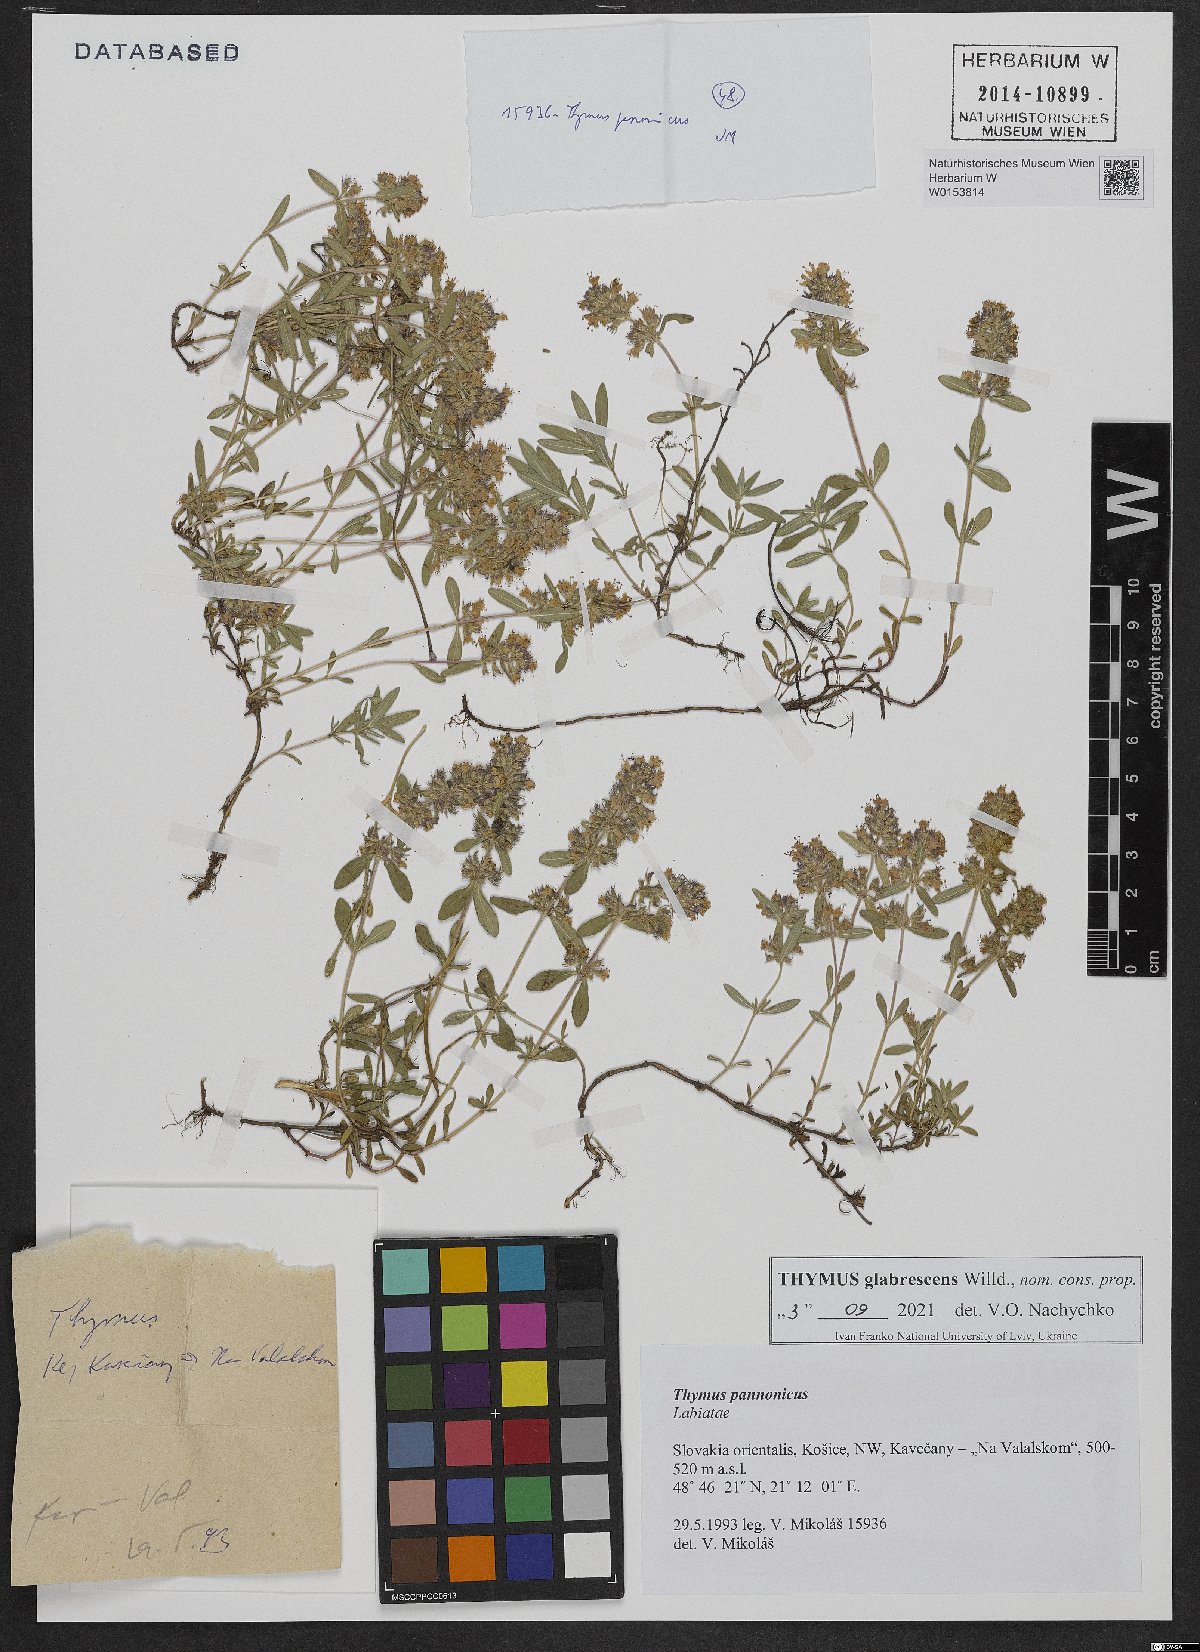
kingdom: Plantae
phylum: Tracheophyta
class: Magnoliopsida
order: Lamiales
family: Lamiaceae
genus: Thymus
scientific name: Thymus pannonicus
